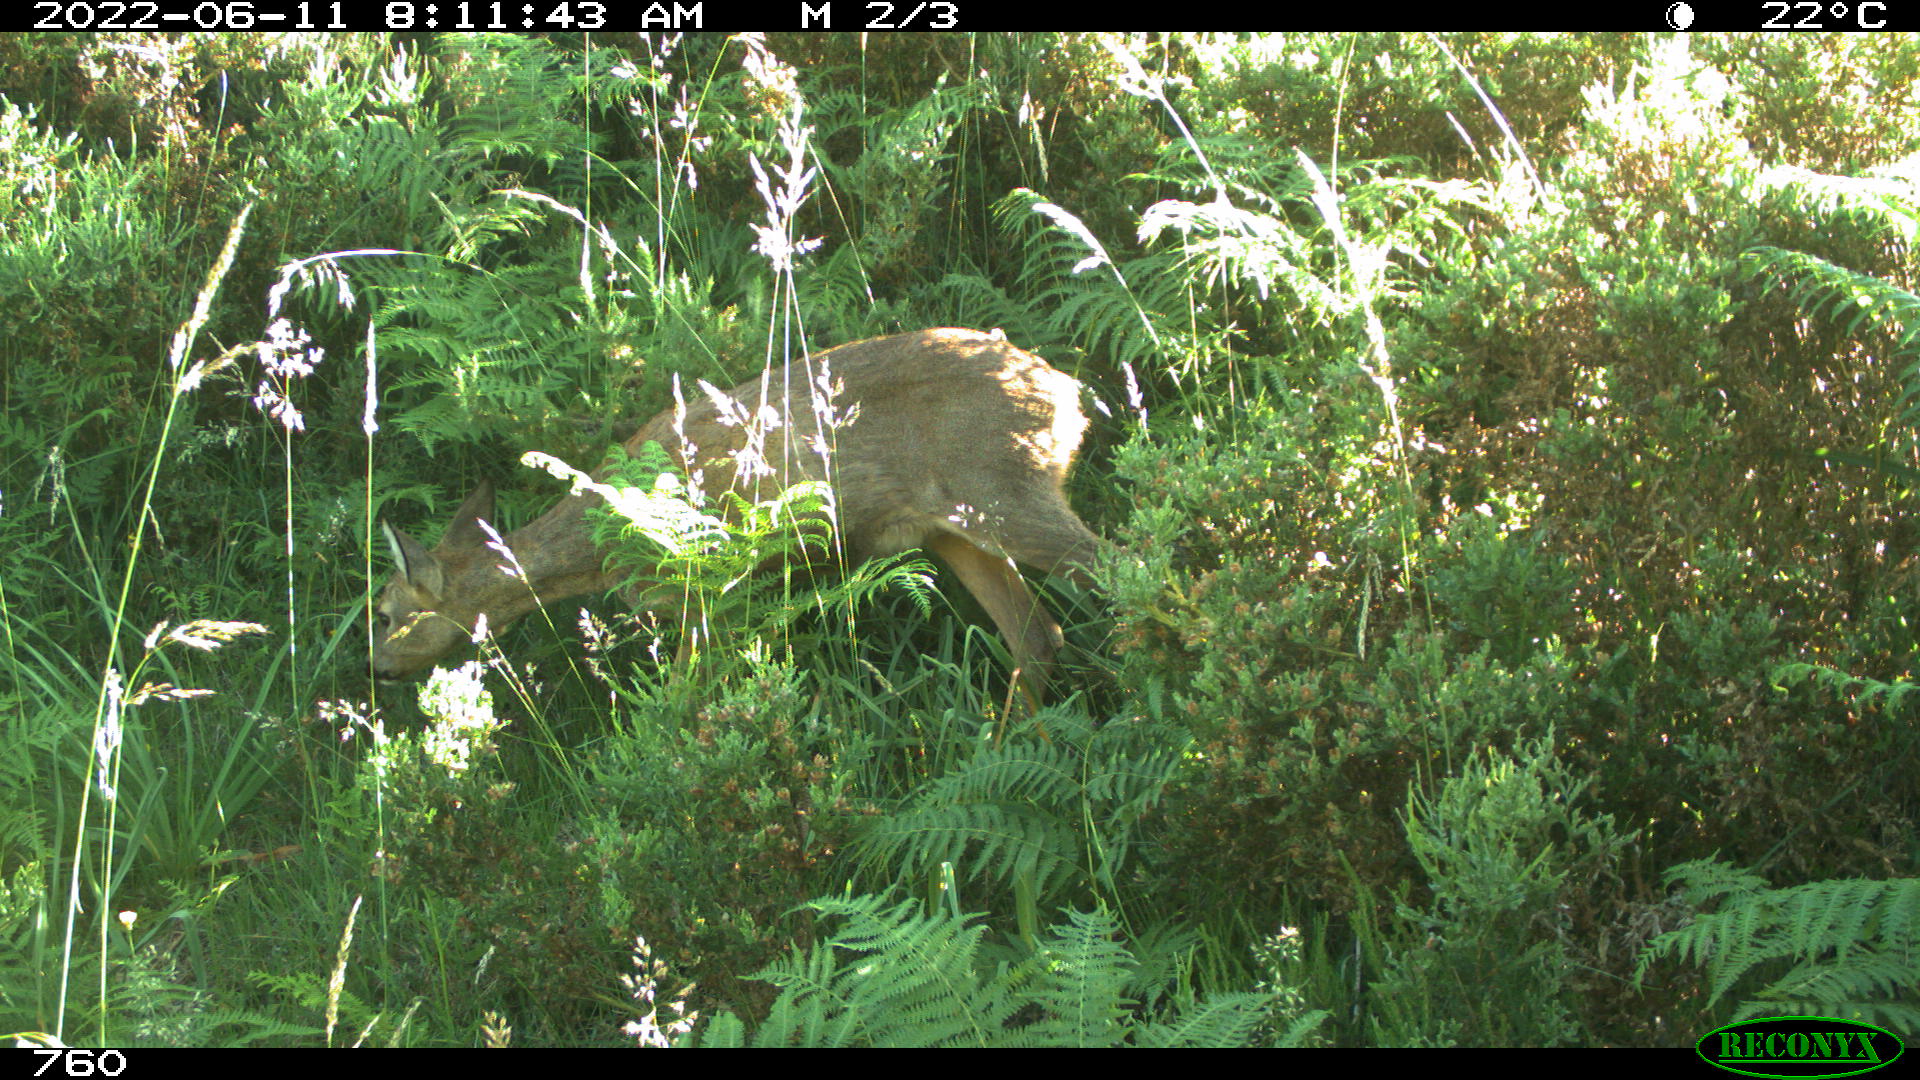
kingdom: Animalia
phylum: Chordata
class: Mammalia
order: Artiodactyla
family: Cervidae
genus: Capreolus
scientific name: Capreolus capreolus
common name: Western roe deer
